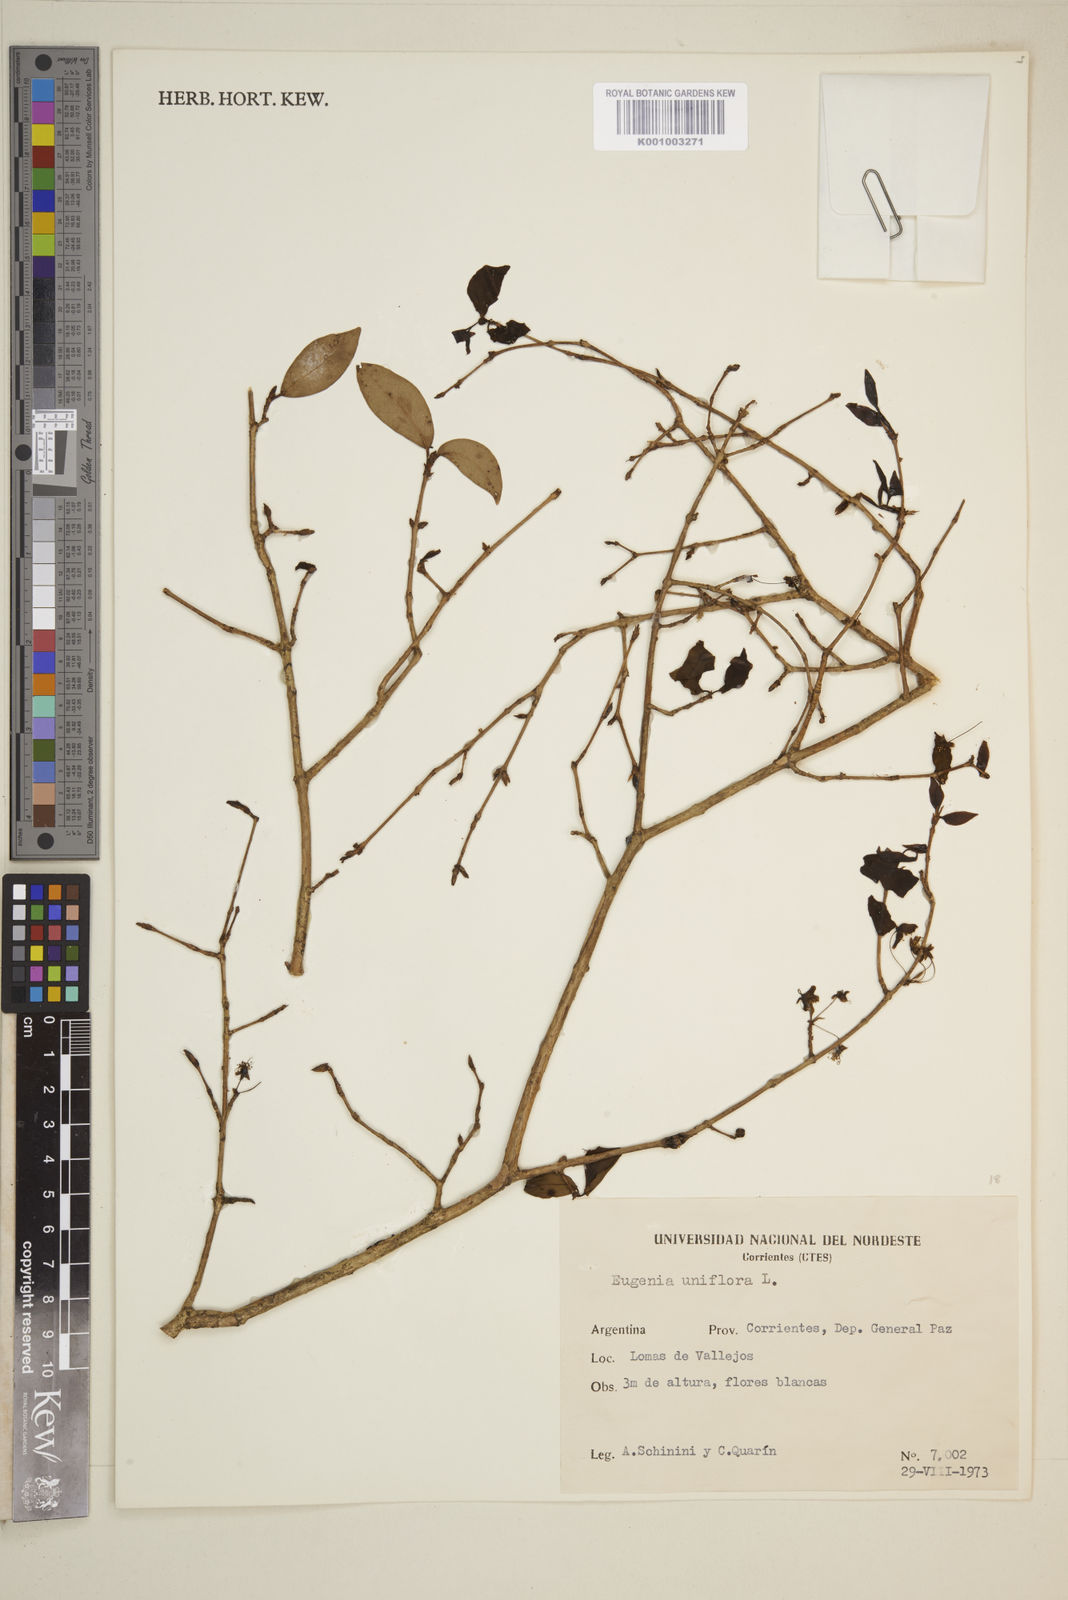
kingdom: Plantae
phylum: Tracheophyta
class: Magnoliopsida
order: Myrtales
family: Myrtaceae
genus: Eugenia
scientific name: Eugenia uniflora
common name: Surinam cherry
